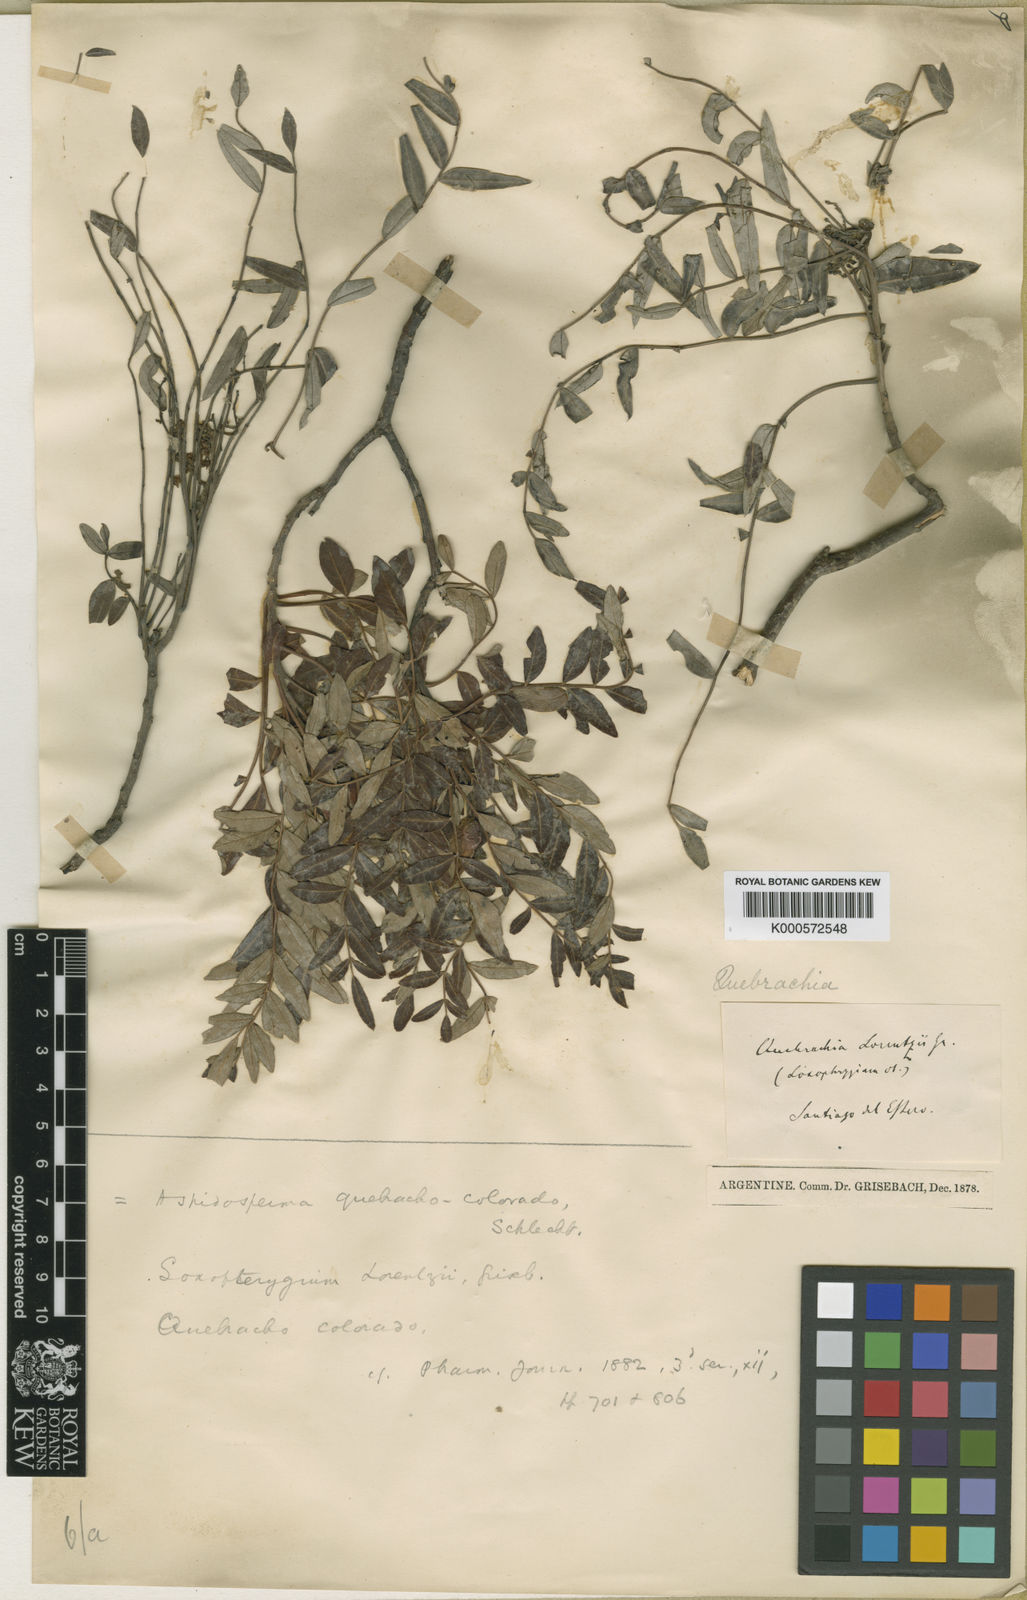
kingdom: Plantae
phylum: Tracheophyta
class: Magnoliopsida
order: Sapindales
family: Anacardiaceae
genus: Schinopsis
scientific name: Schinopsis lorentzii
